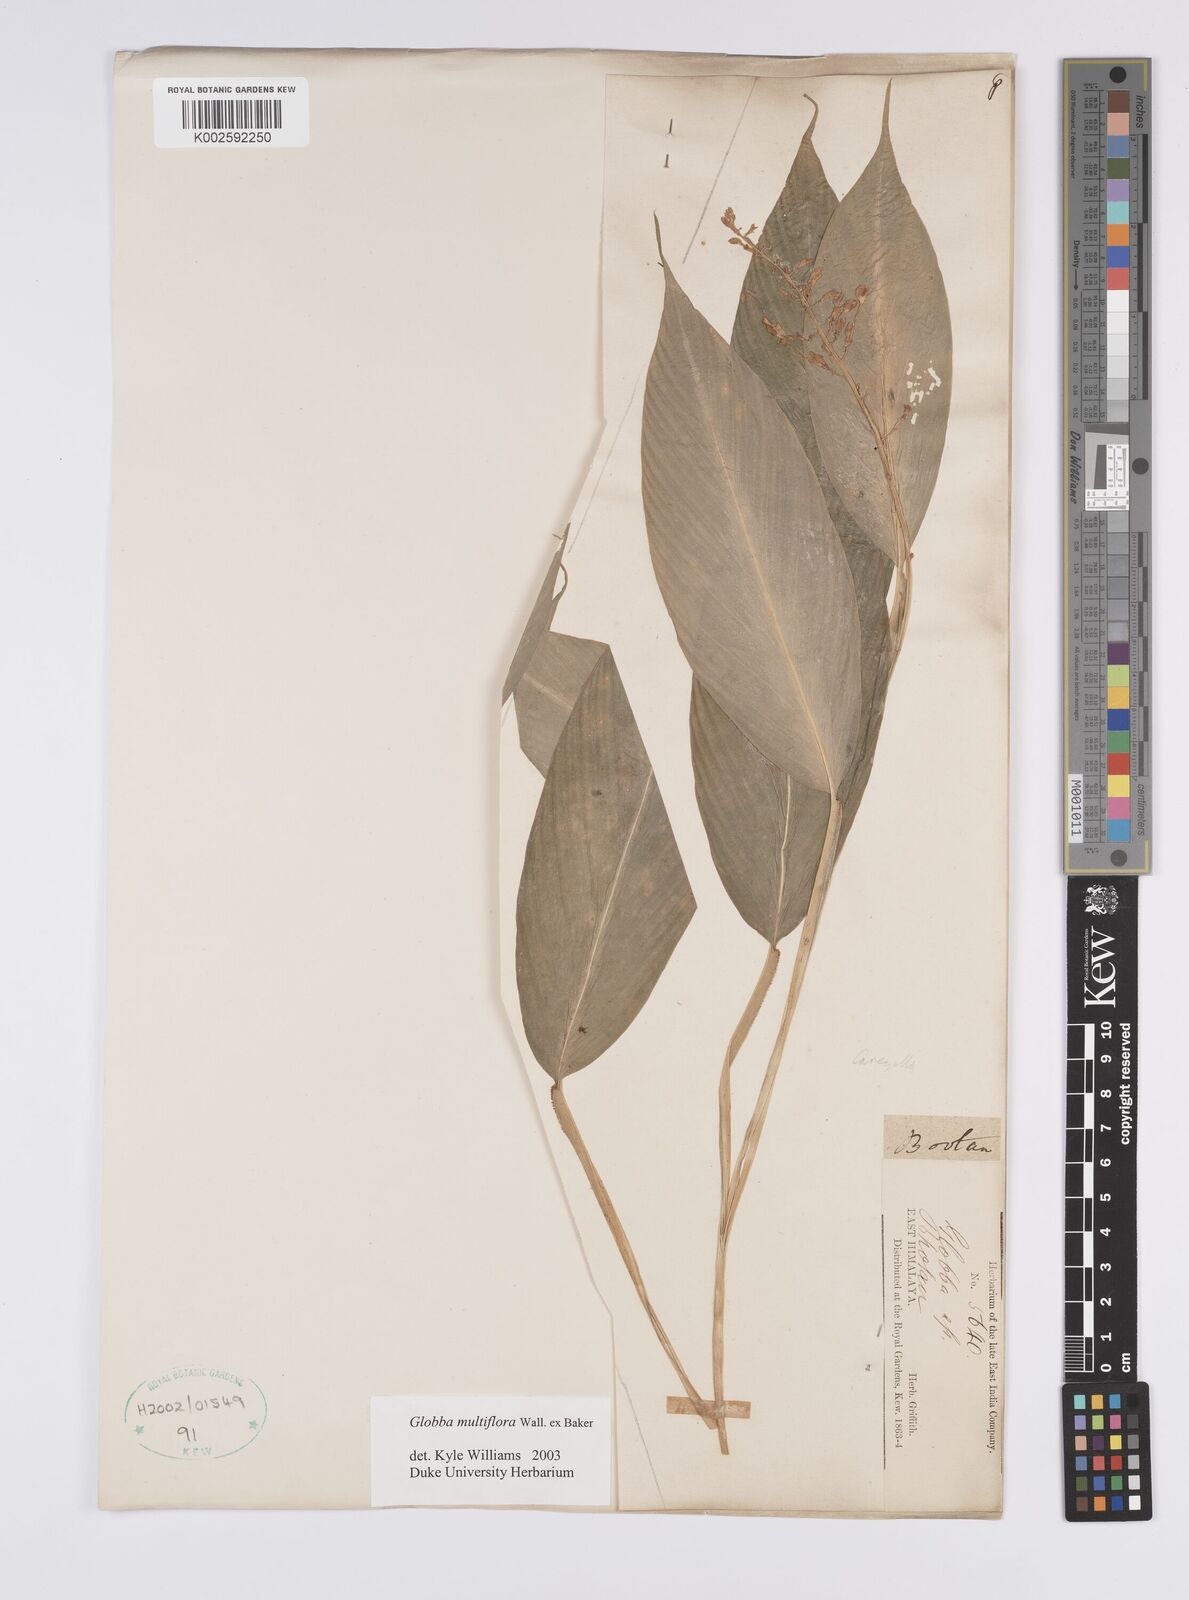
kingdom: Plantae
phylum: Tracheophyta
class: Liliopsida
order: Zingiberales
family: Zingiberaceae
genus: Globba
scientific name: Globba multiflora
